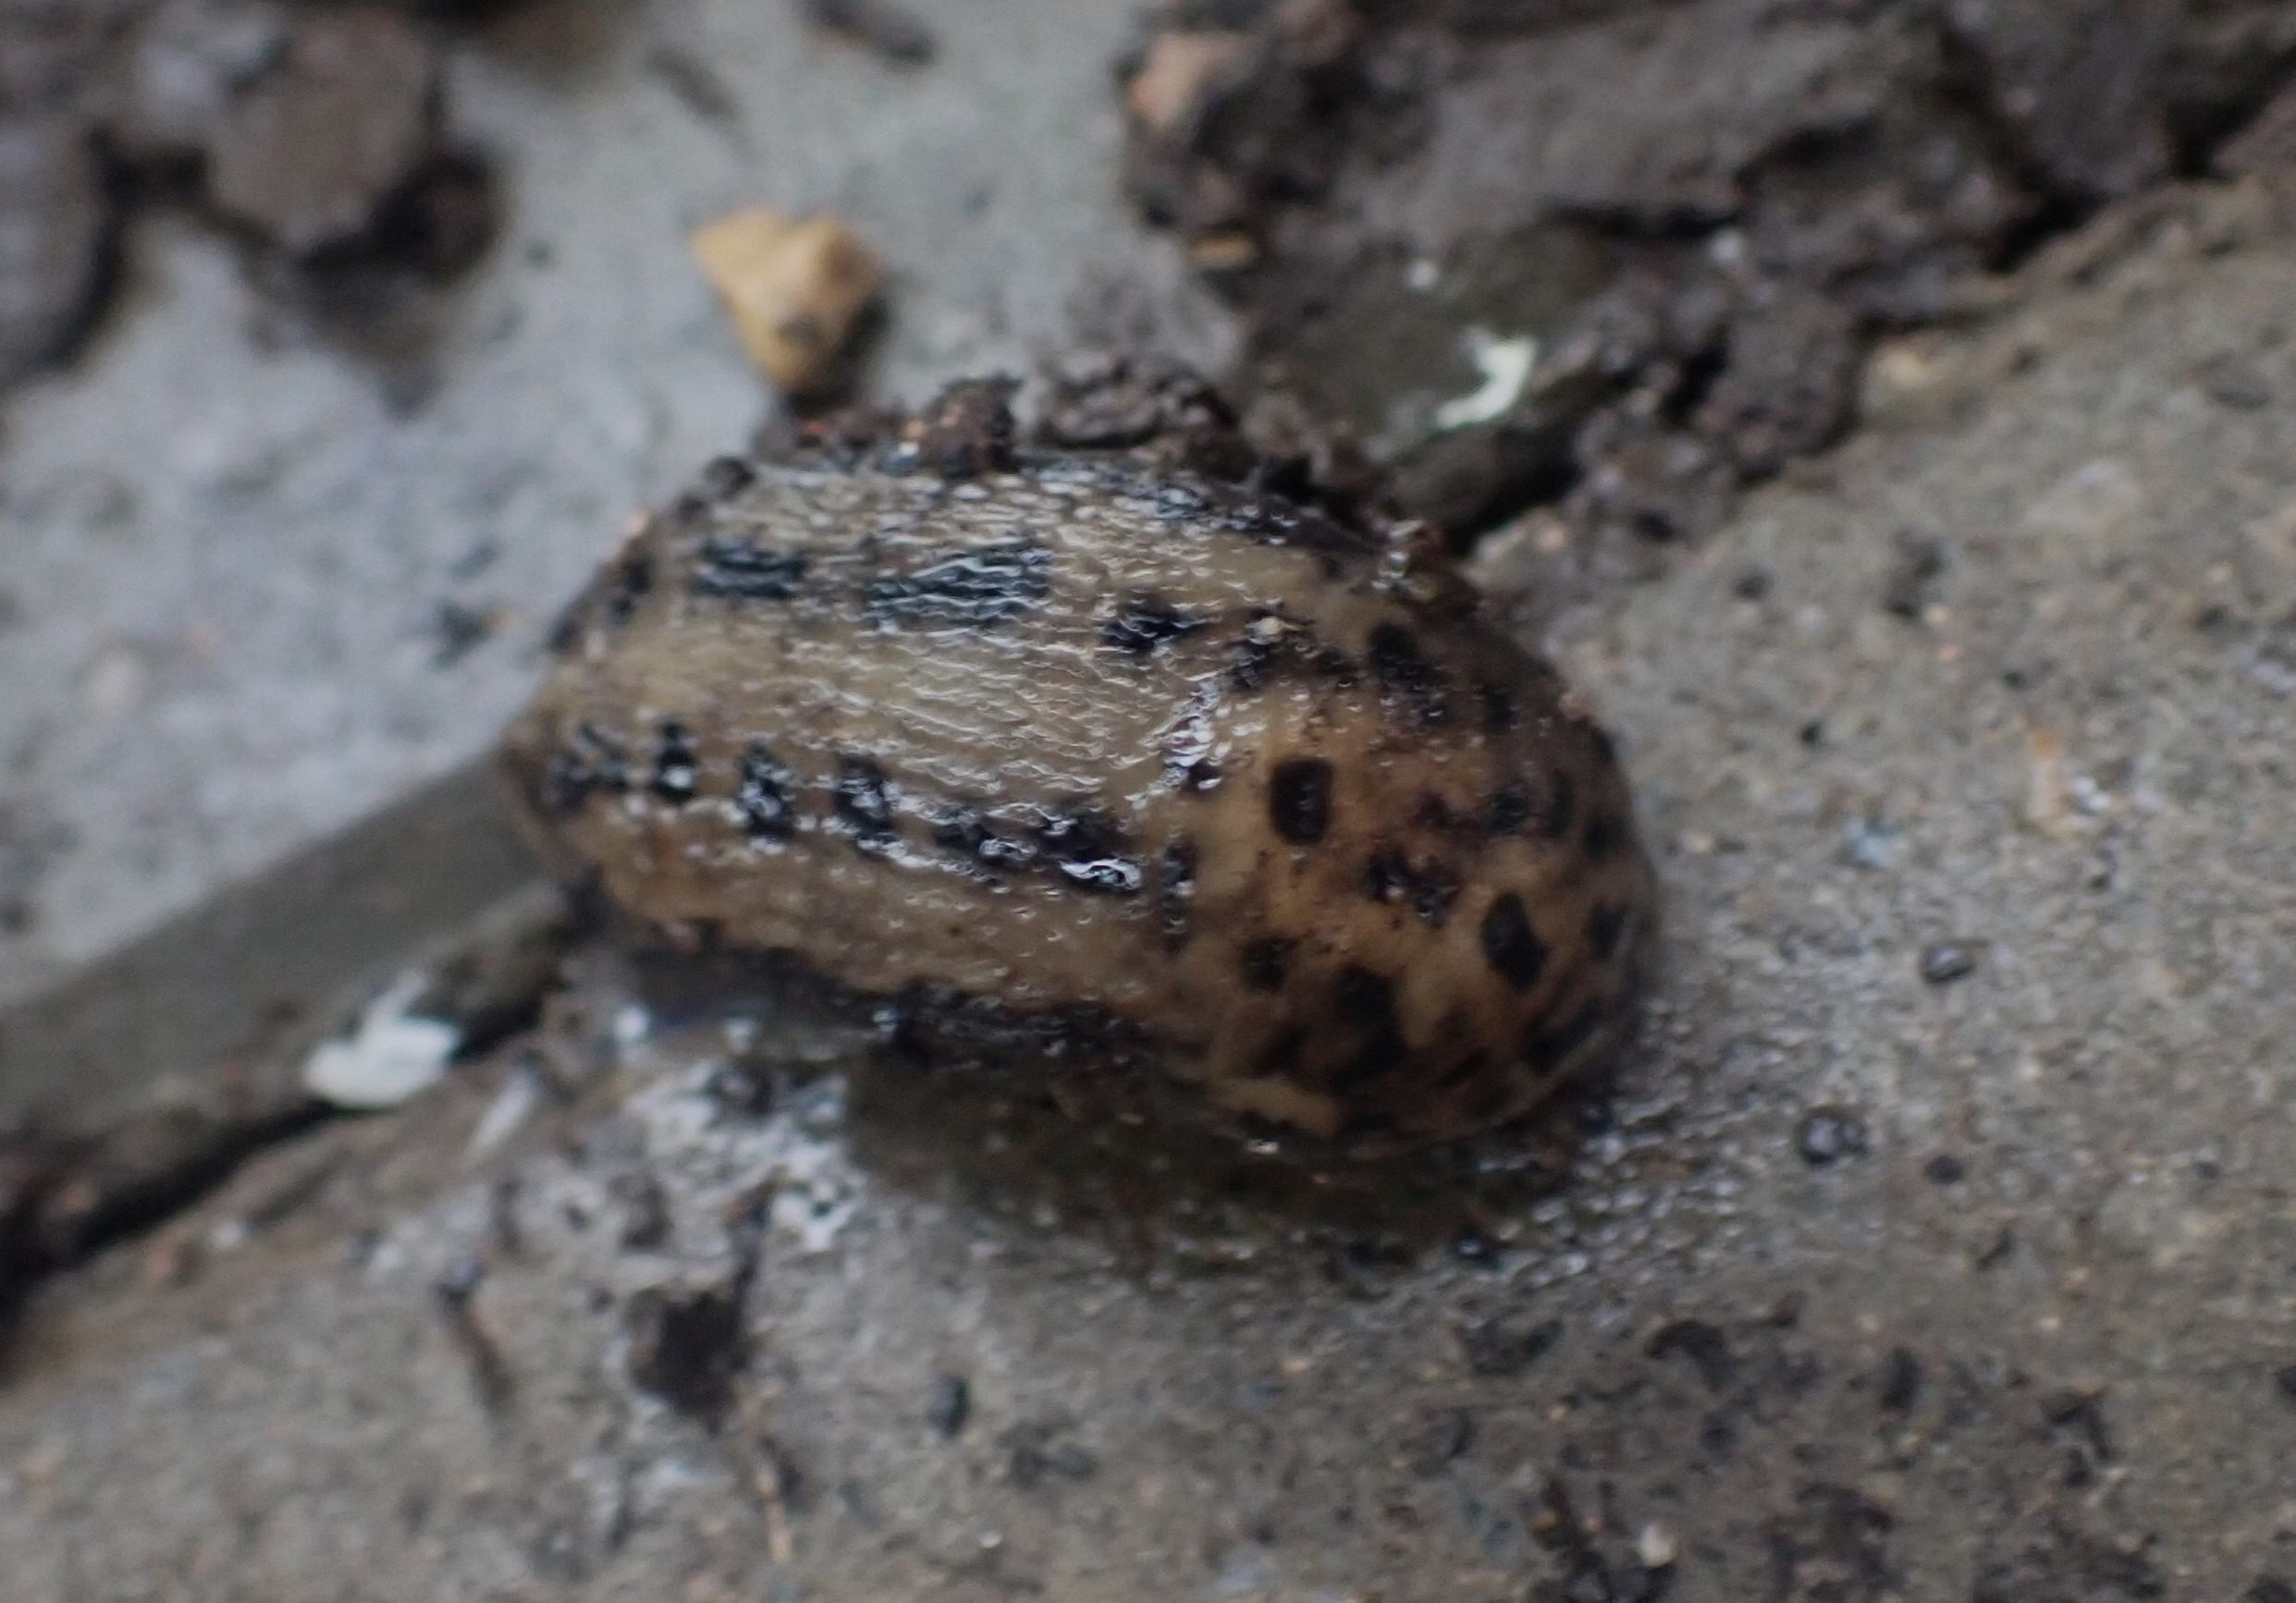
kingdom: Animalia
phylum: Mollusca
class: Gastropoda
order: Stylommatophora
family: Limacidae
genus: Limax
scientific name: Limax maximus
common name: Pantersnegl
